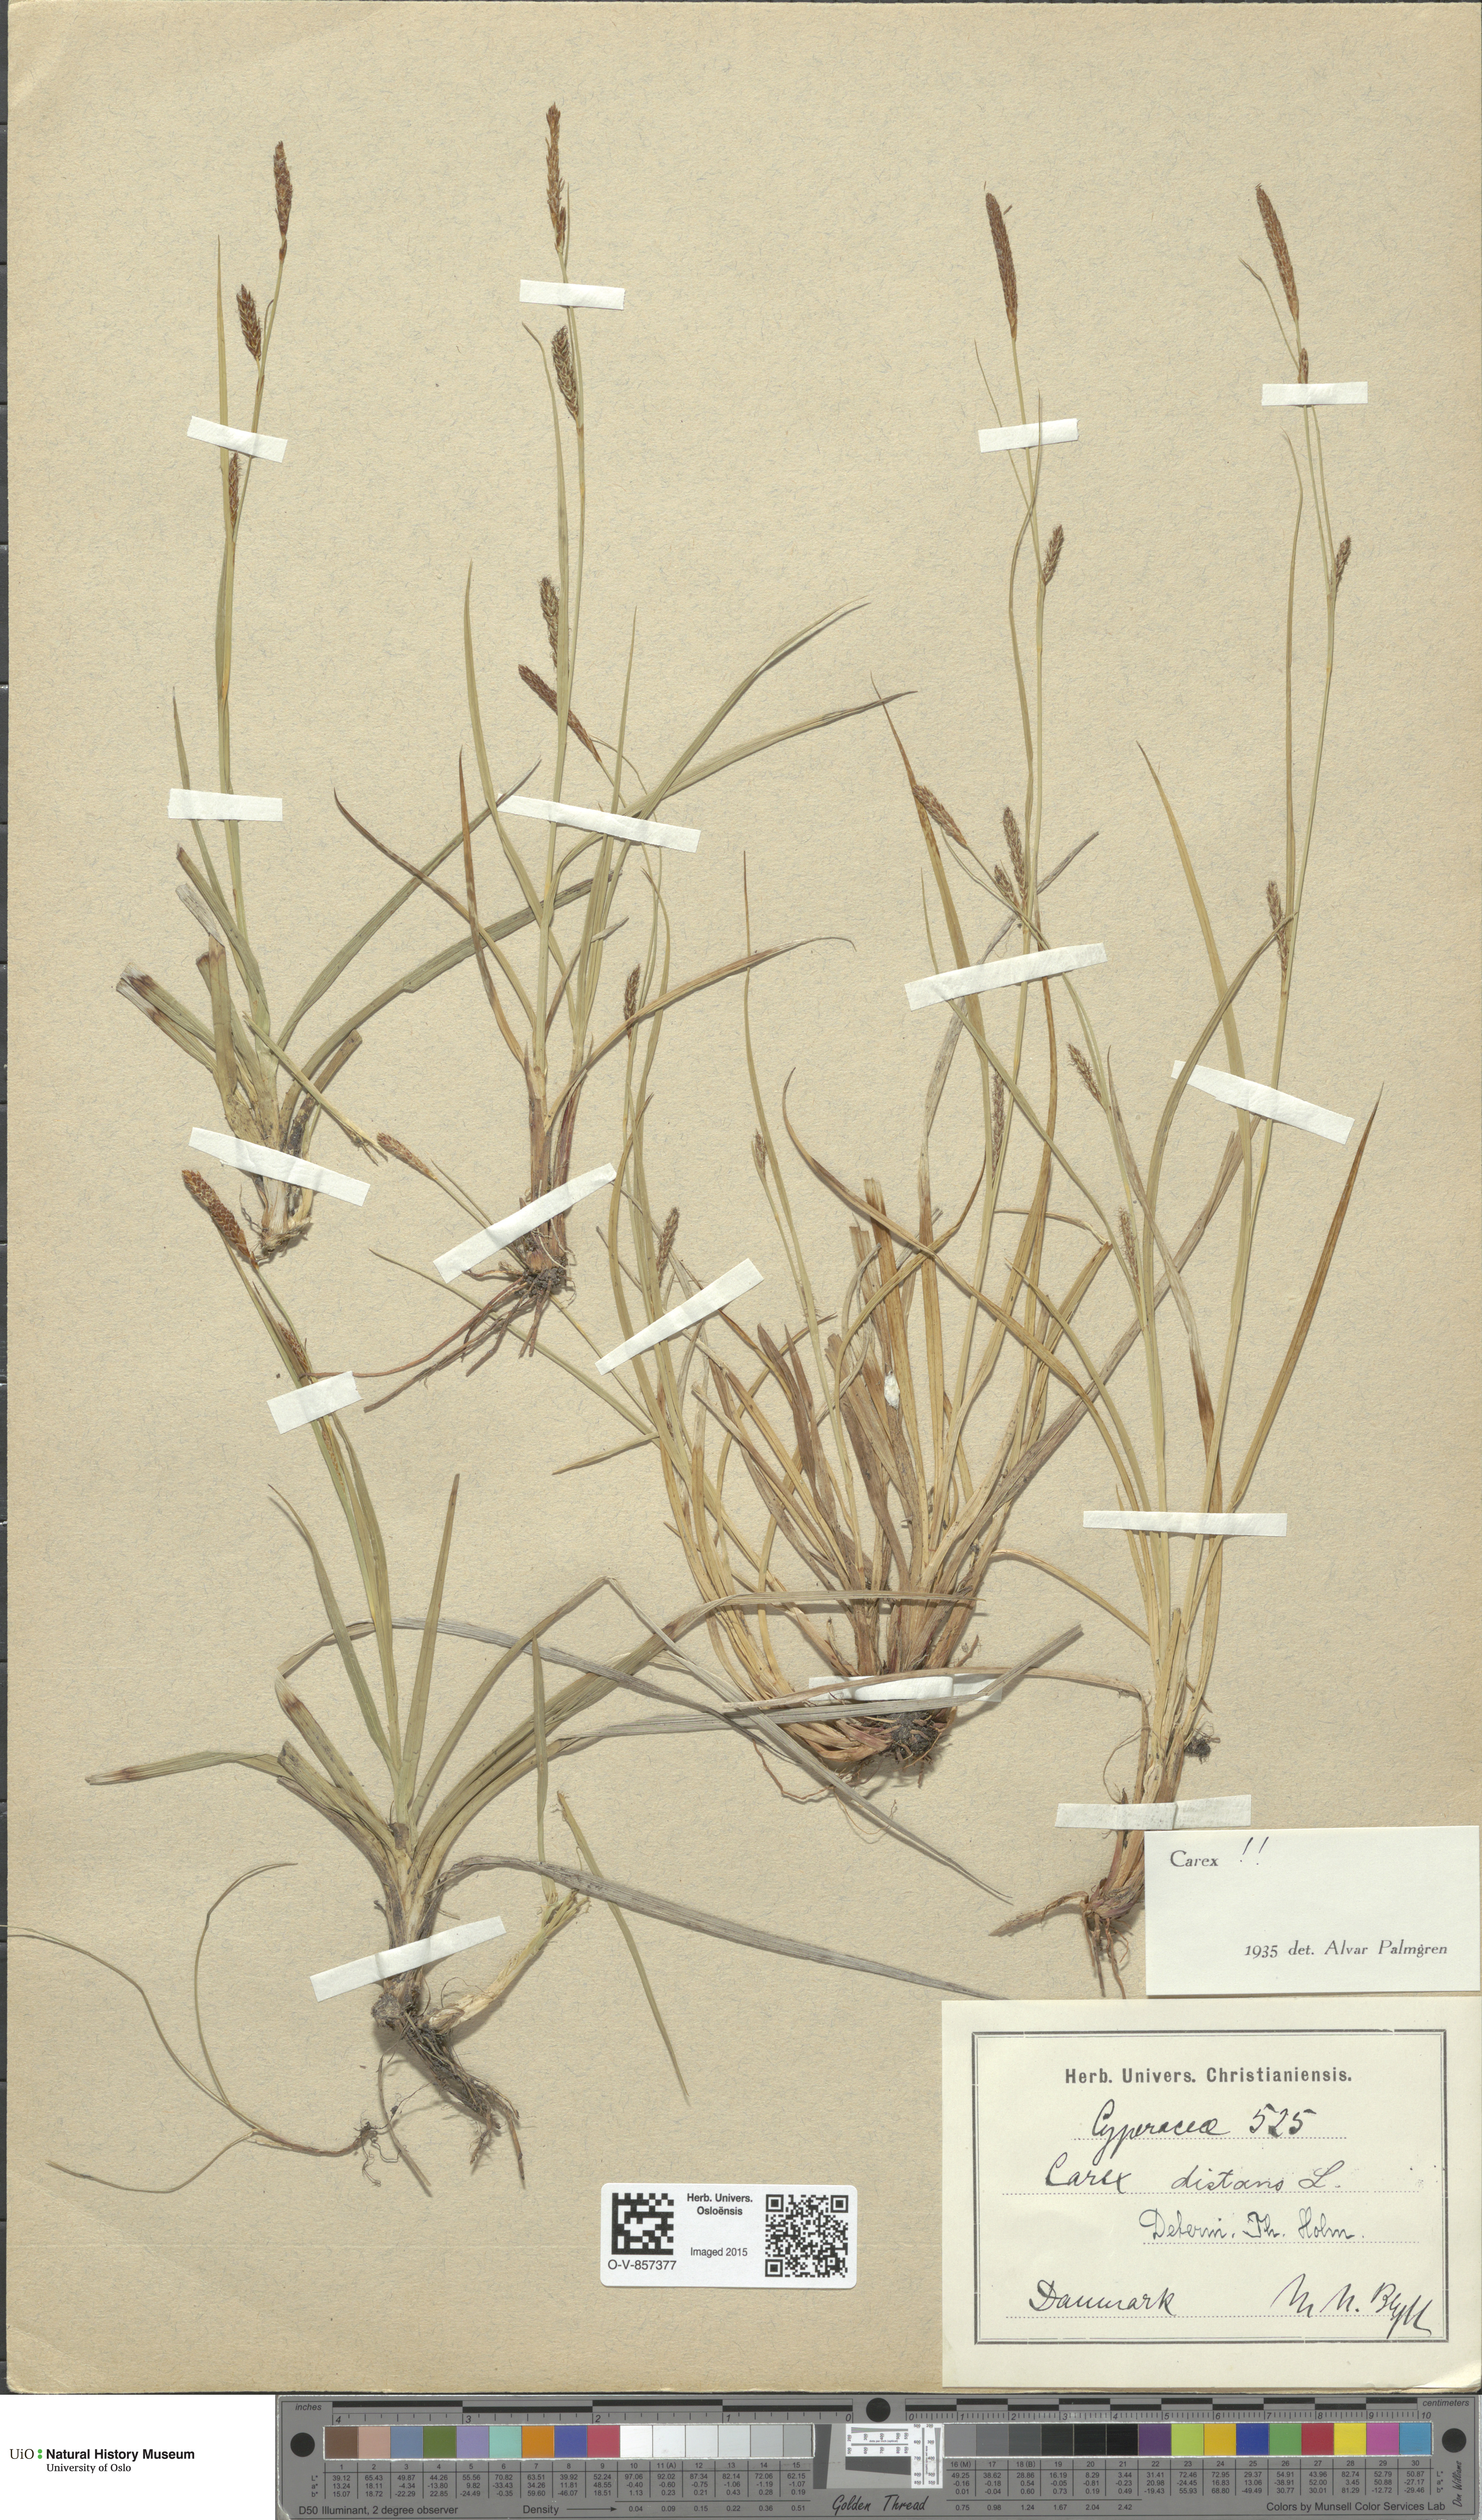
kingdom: Plantae
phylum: Tracheophyta
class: Liliopsida
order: Poales
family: Cyperaceae
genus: Carex
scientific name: Carex distans
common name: Distant sedge
